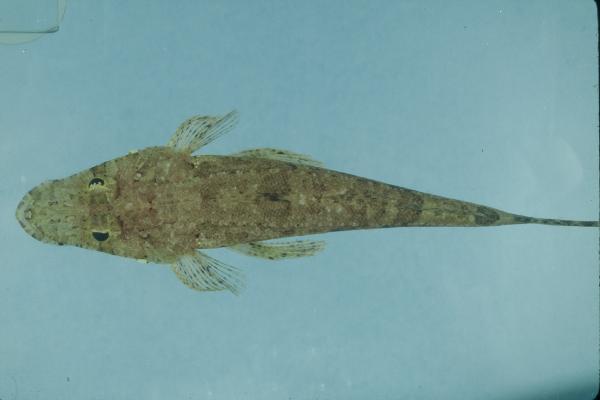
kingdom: Animalia
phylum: Chordata
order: Scorpaeniformes
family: Platycephalidae
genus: Thysanophrys
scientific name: Thysanophrys chiltonae
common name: Longsnout flathead
